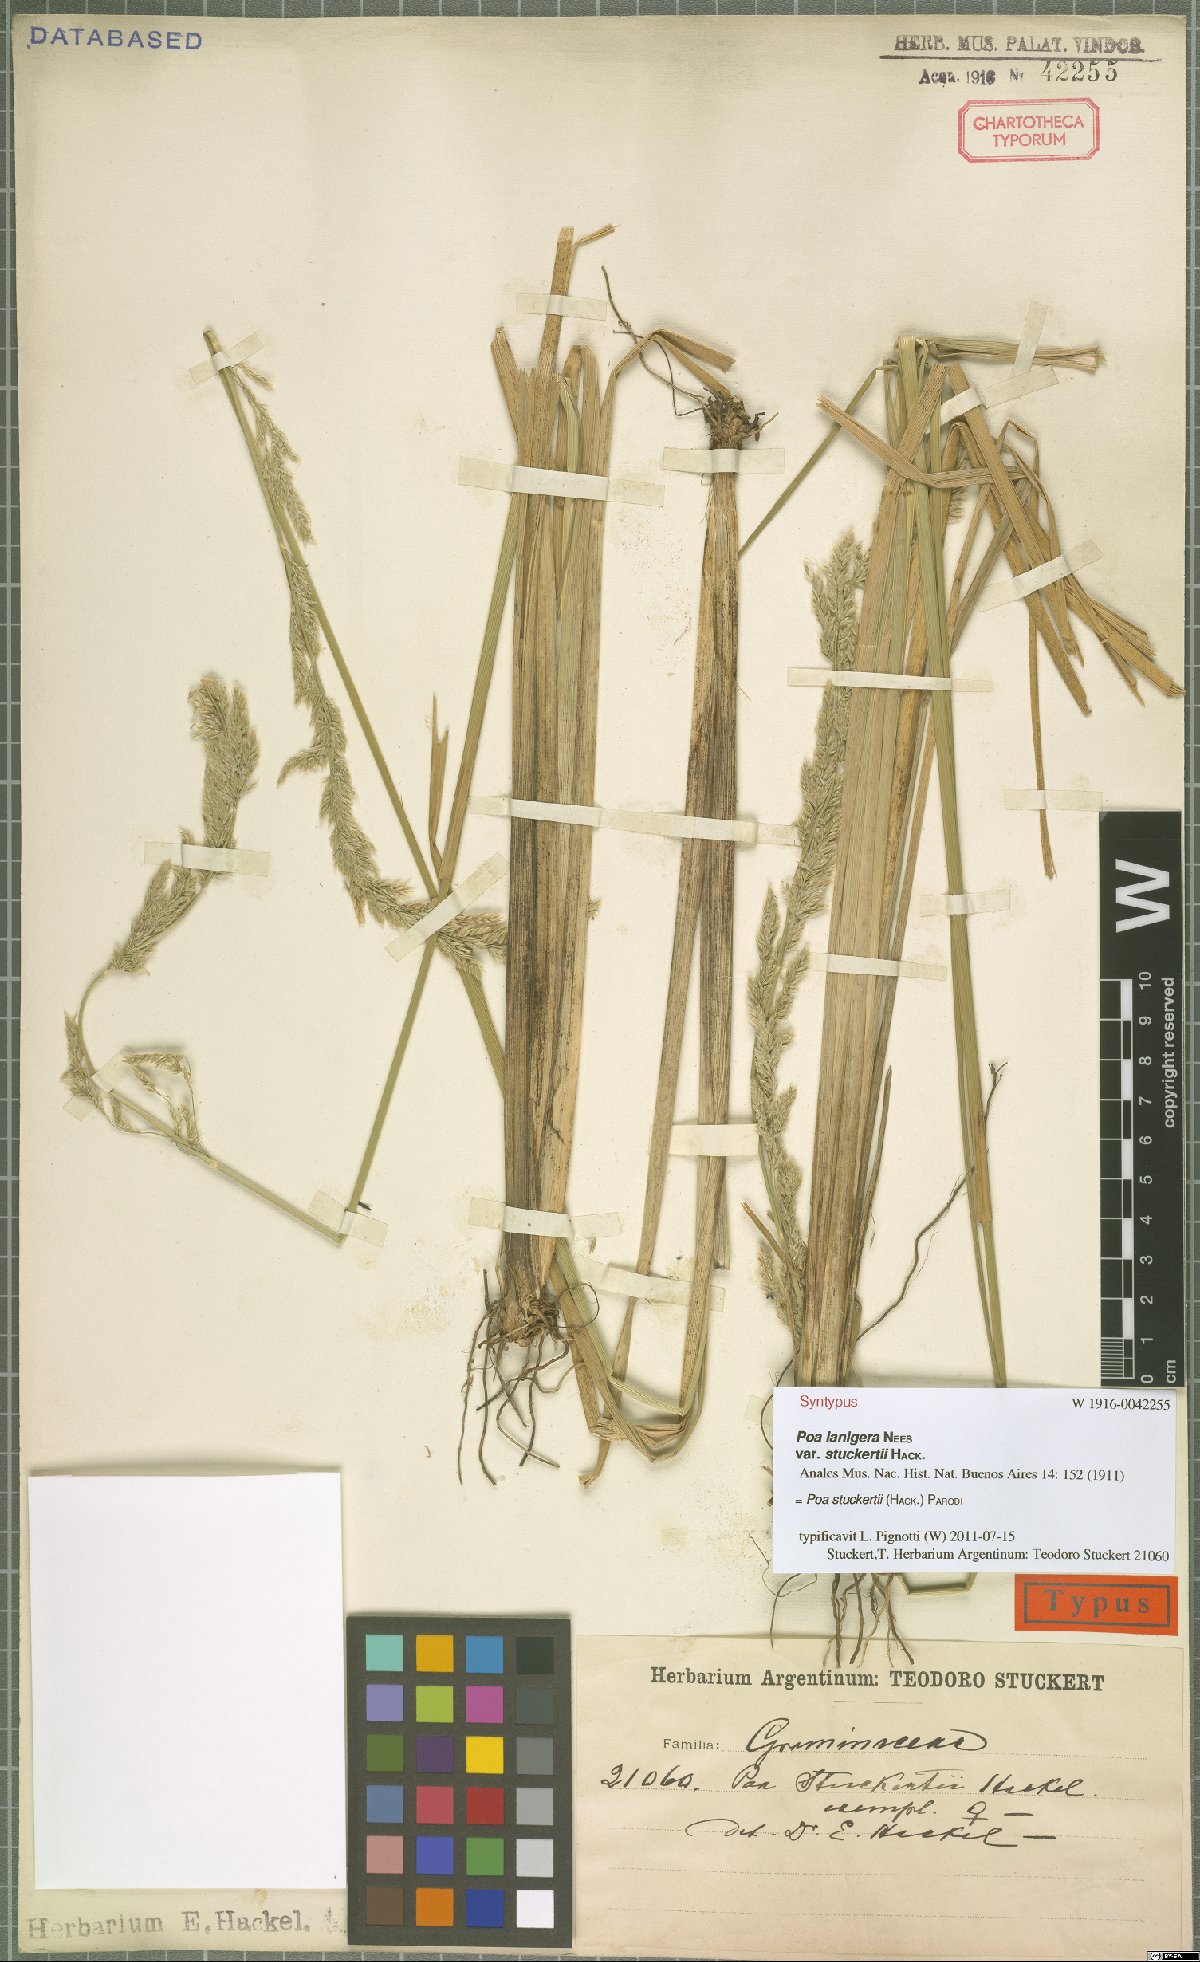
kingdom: Plantae
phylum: Tracheophyta
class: Liliopsida
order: Poales
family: Poaceae
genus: Poa
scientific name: Poa stuckertii
